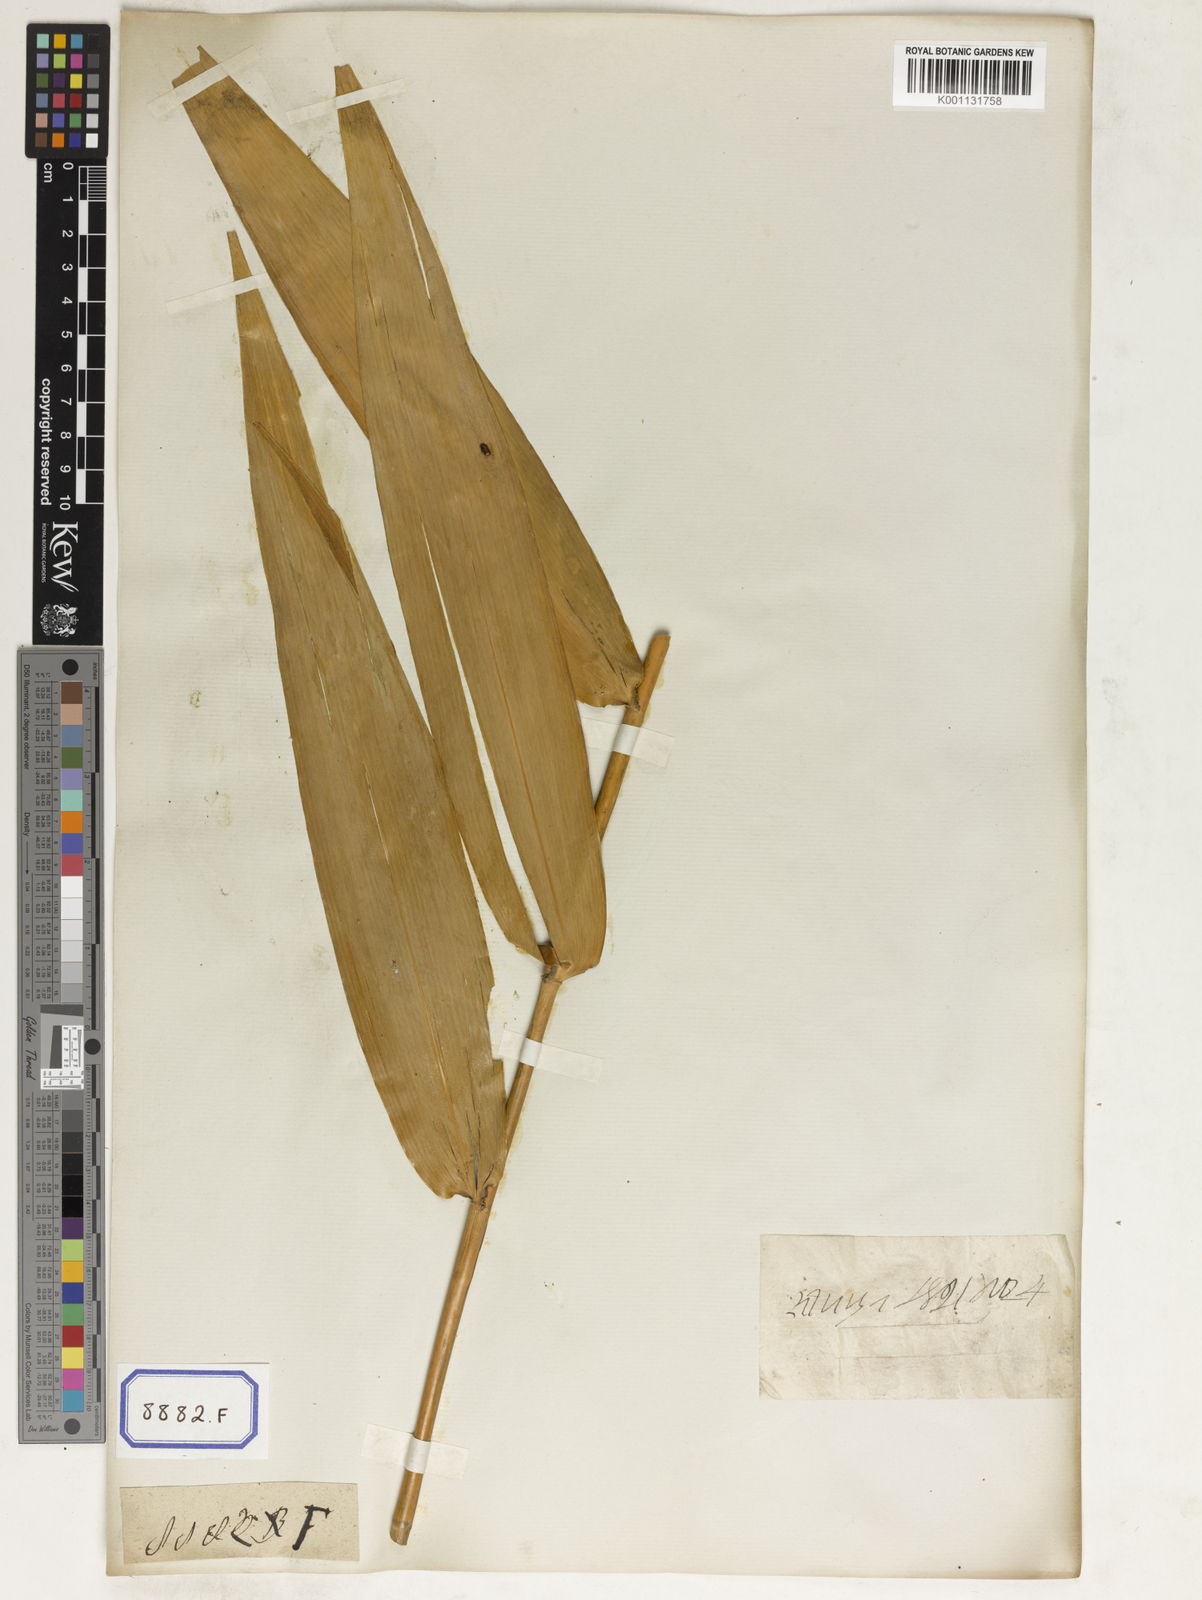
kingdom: Plantae
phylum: Tracheophyta
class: Liliopsida
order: Poales
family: Poaceae
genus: Thysanolaena
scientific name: Thysanolaena latifolia
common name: Tiger grass
